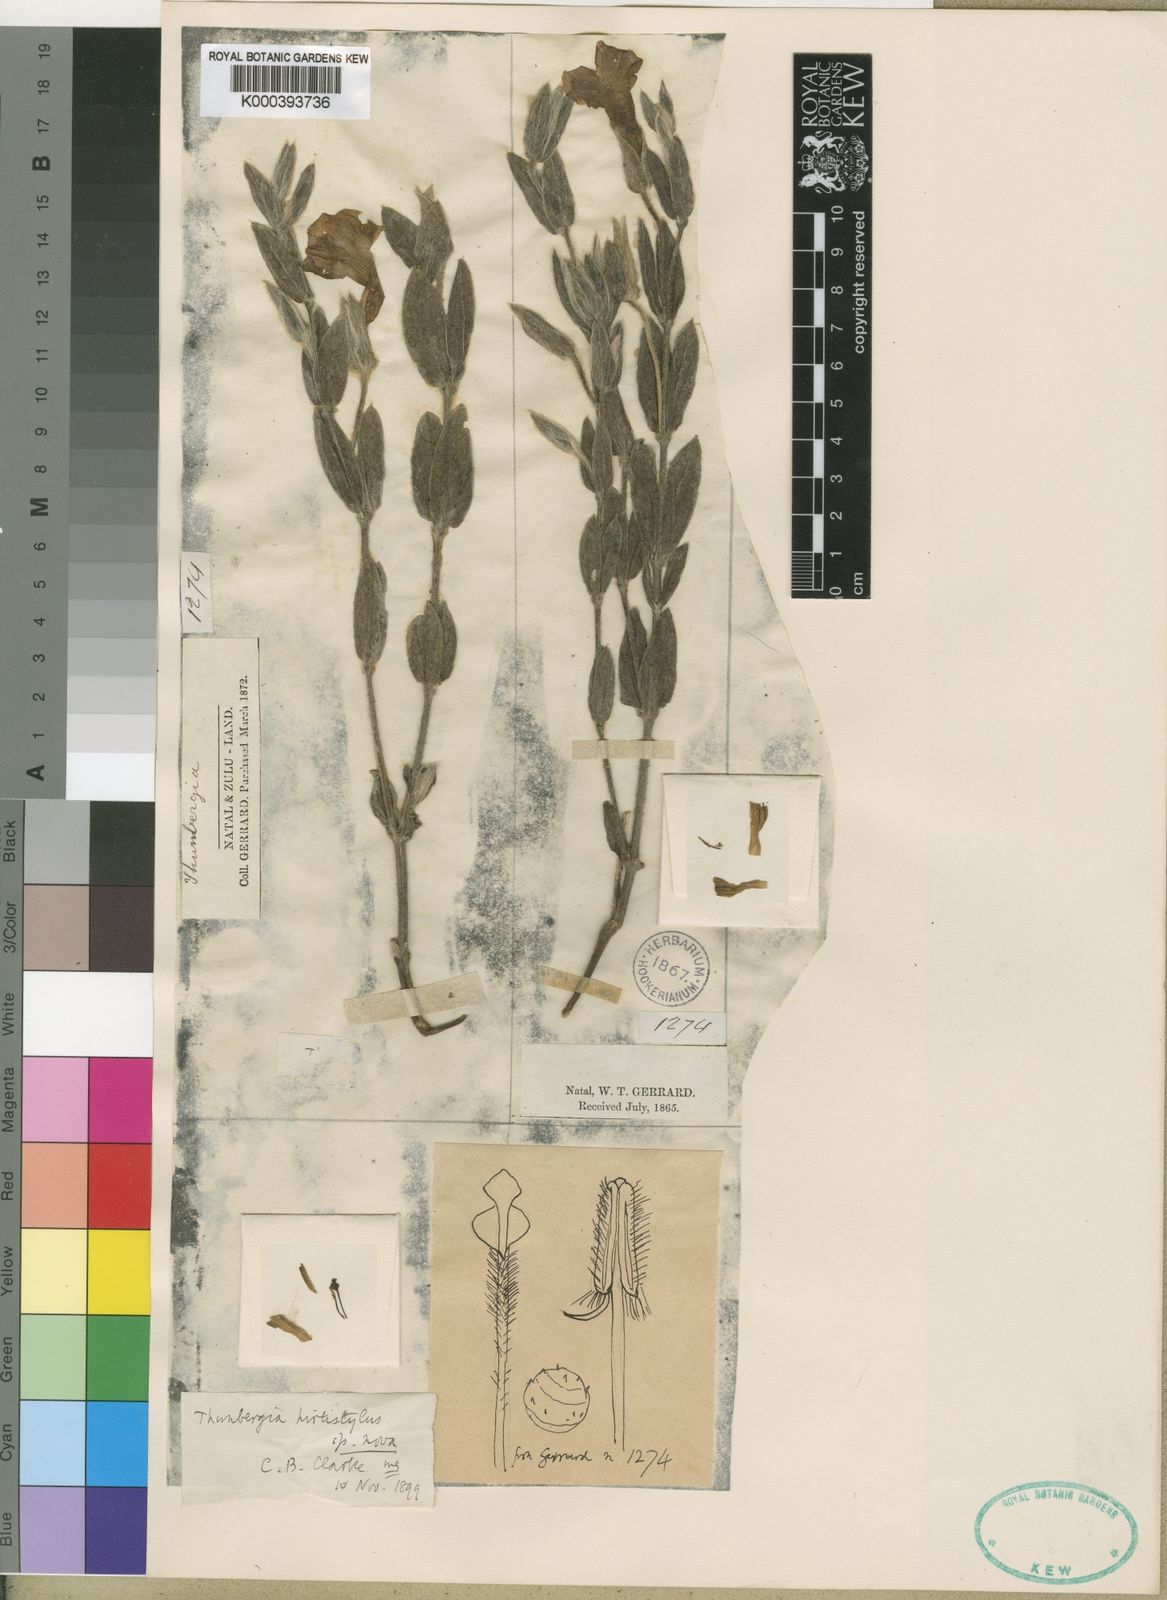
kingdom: Plantae
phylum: Tracheophyta
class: Magnoliopsida
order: Lamiales
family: Acanthaceae
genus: Thunbergia
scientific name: Thunbergia atriplicifolia
